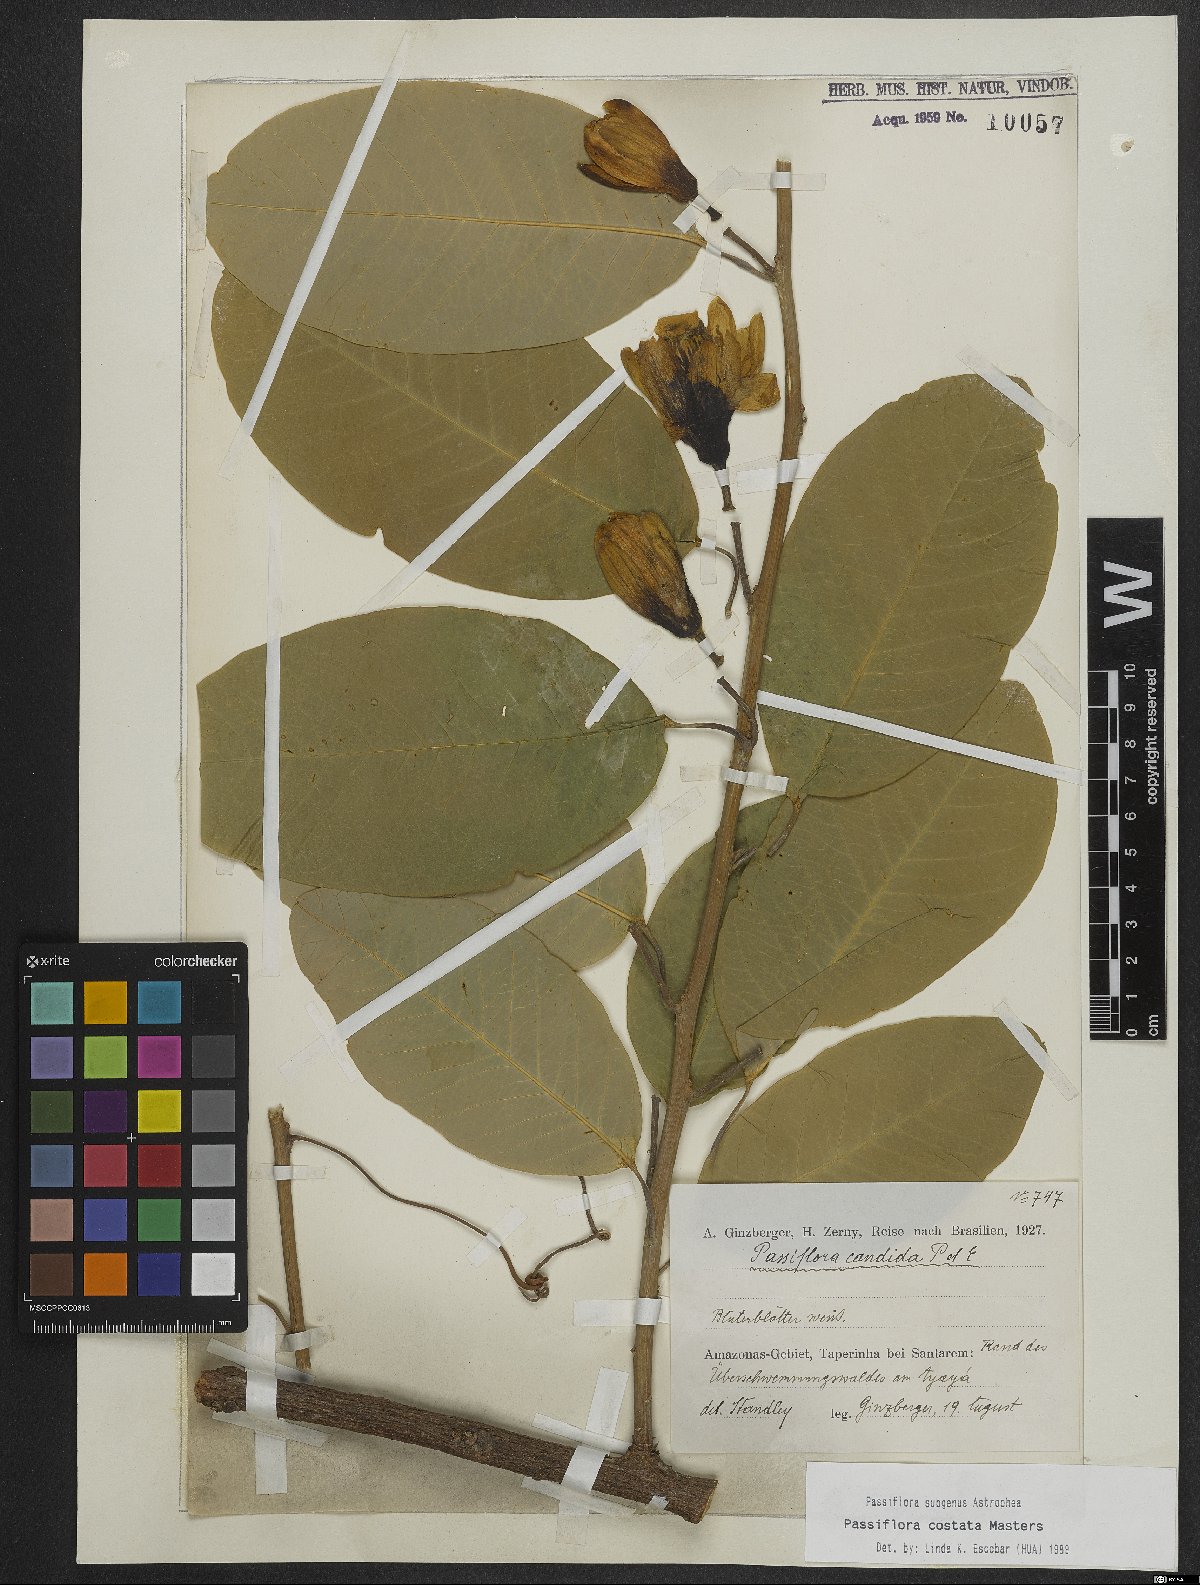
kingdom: Plantae
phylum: Tracheophyta
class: Magnoliopsida
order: Malpighiales
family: Passifloraceae
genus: Passiflora
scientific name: Passiflora costata
